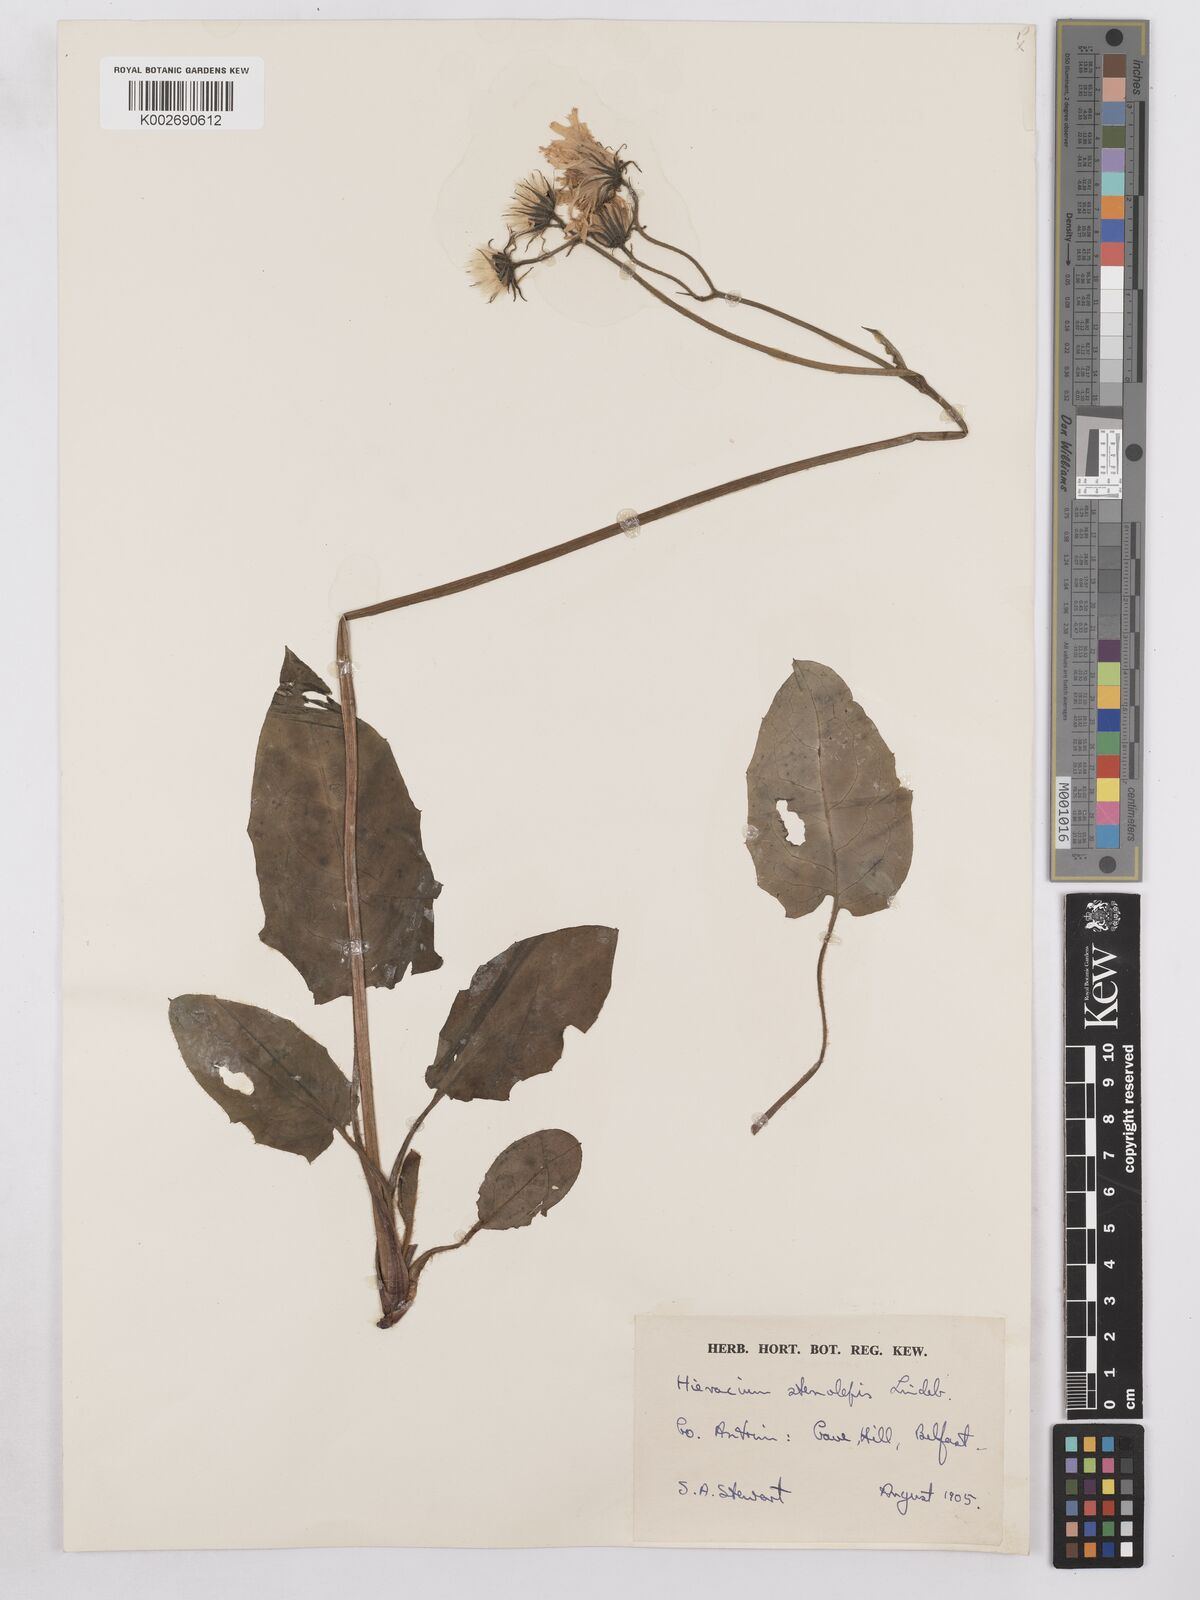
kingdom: Plantae
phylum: Tracheophyta
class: Magnoliopsida
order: Asterales
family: Asteraceae
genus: Hieracium
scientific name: Hieracium britannicum
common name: British hawkweed
